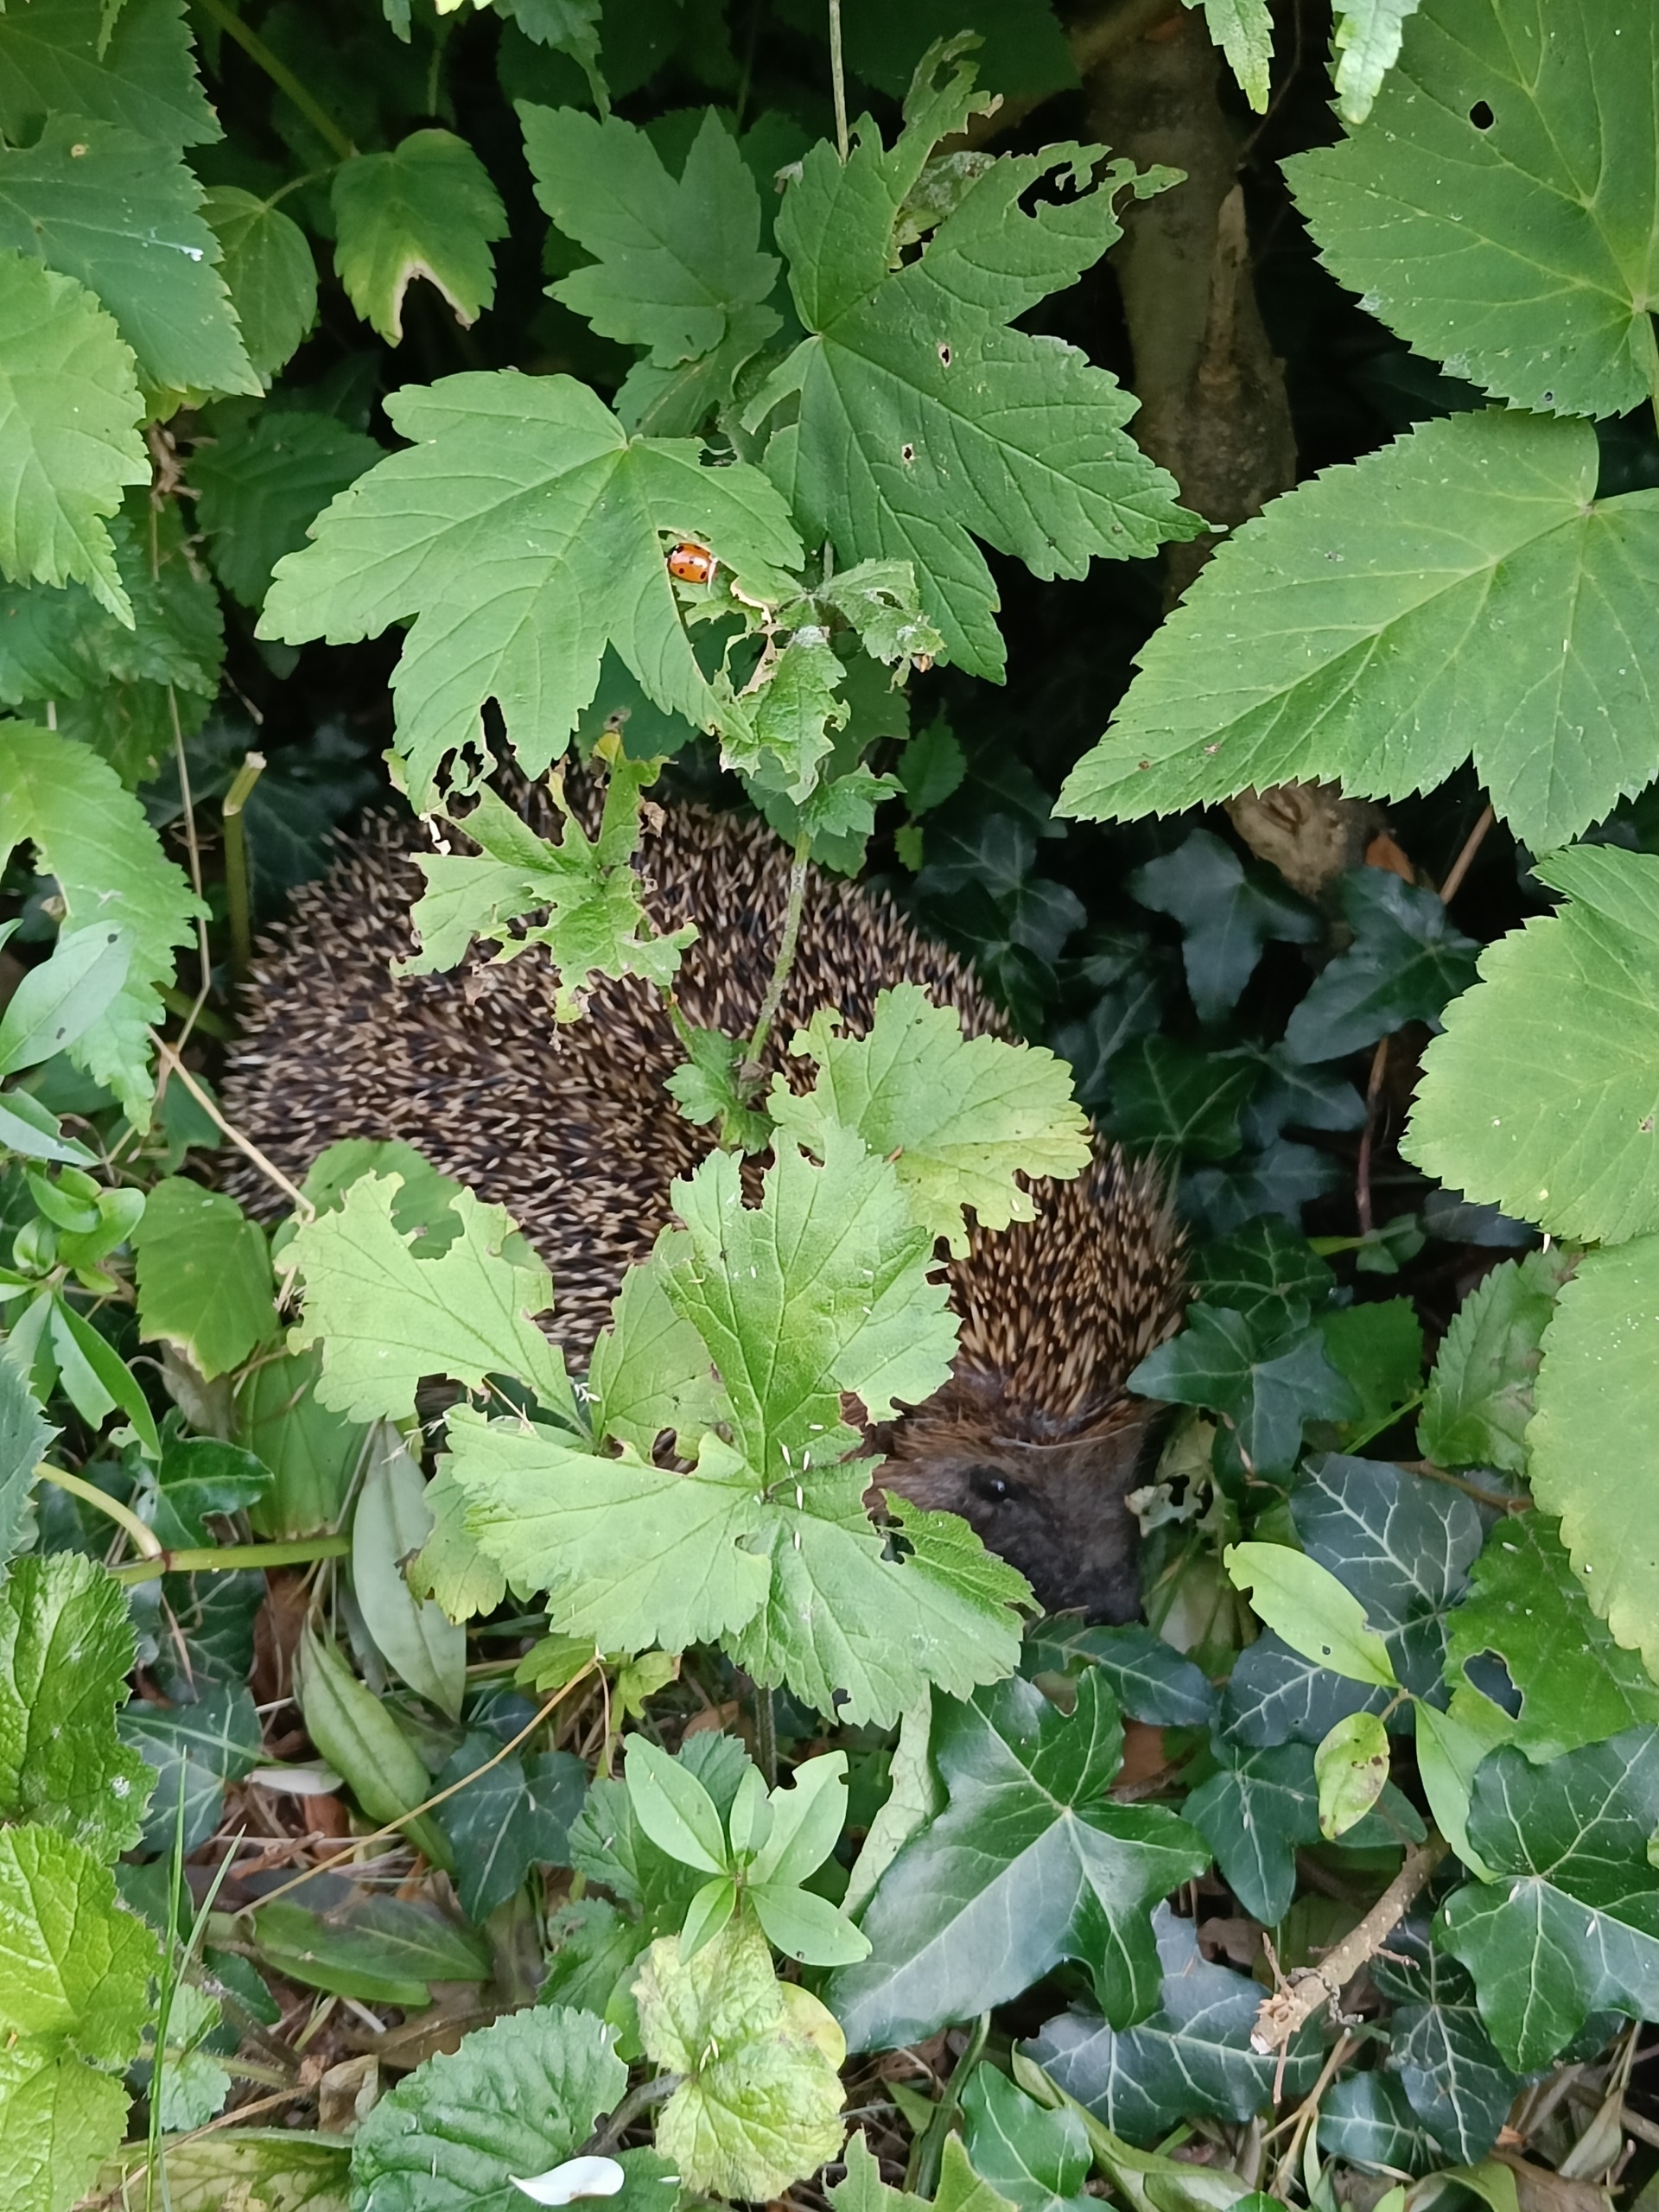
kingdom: Animalia
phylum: Chordata
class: Mammalia
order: Erinaceomorpha
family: Erinaceidae
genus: Erinaceus
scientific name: Erinaceus europaeus
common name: Pindsvin
